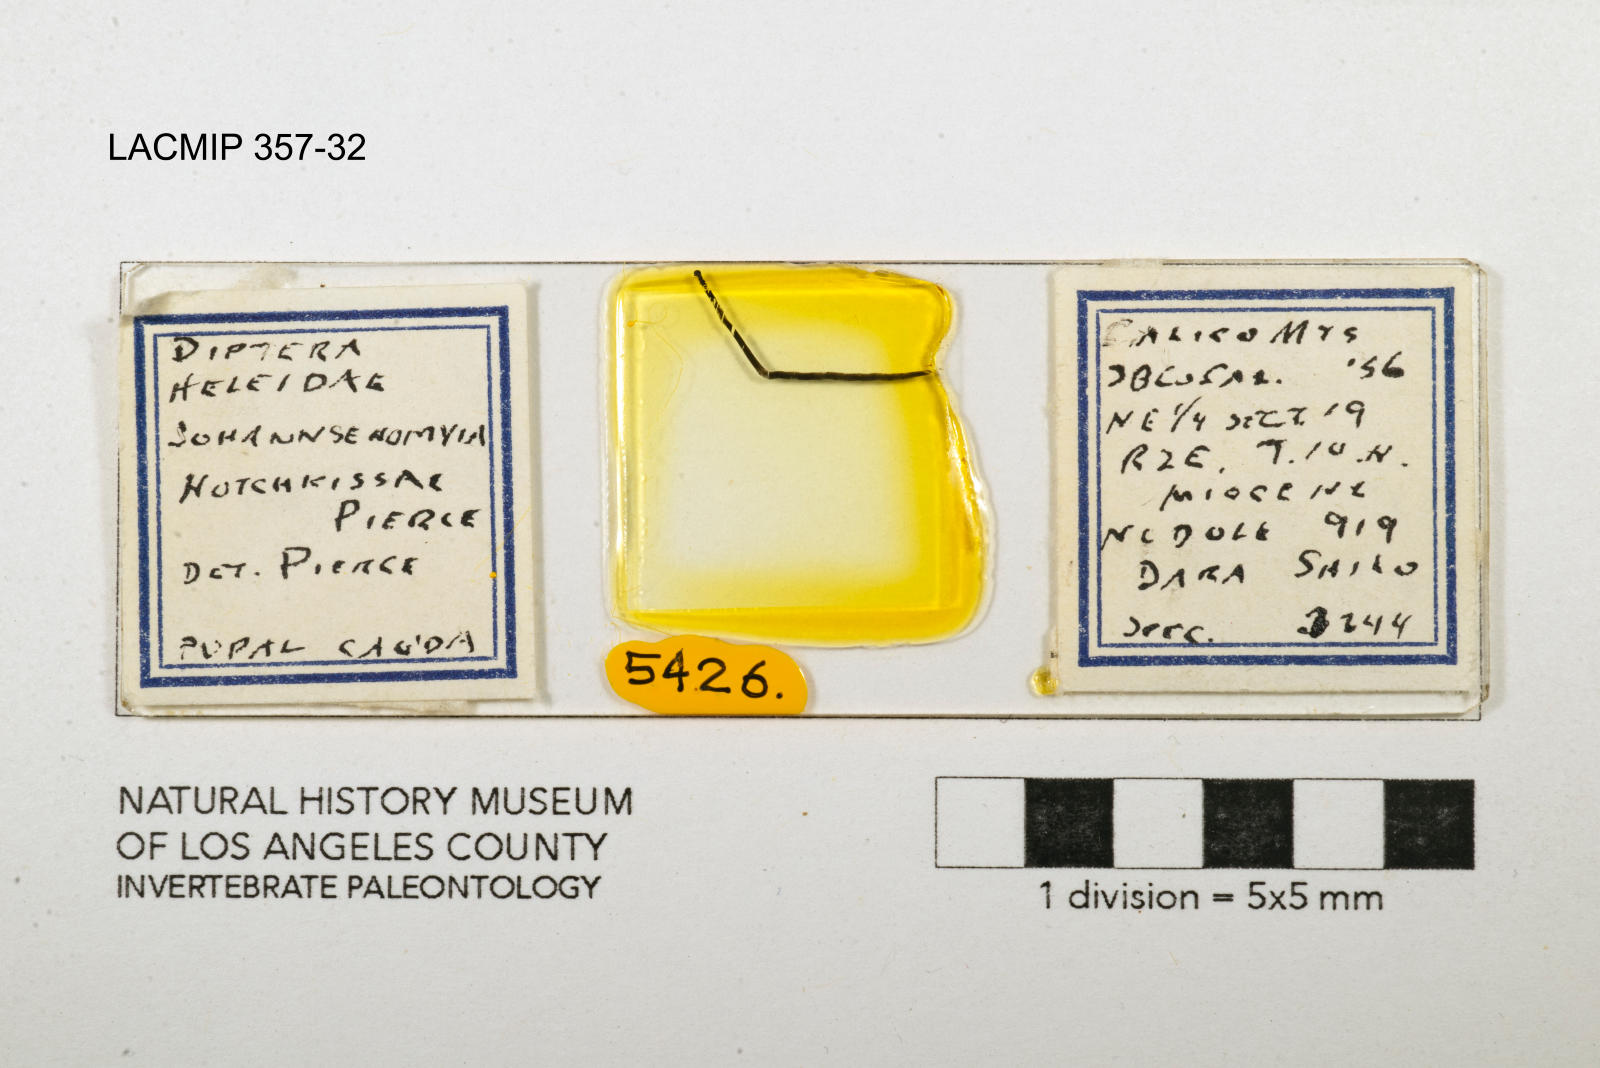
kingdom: Animalia
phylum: Arthropoda
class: Insecta
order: Diptera
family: Ceratopogonidae
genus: Johannsenomyia
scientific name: Johannsenomyia
